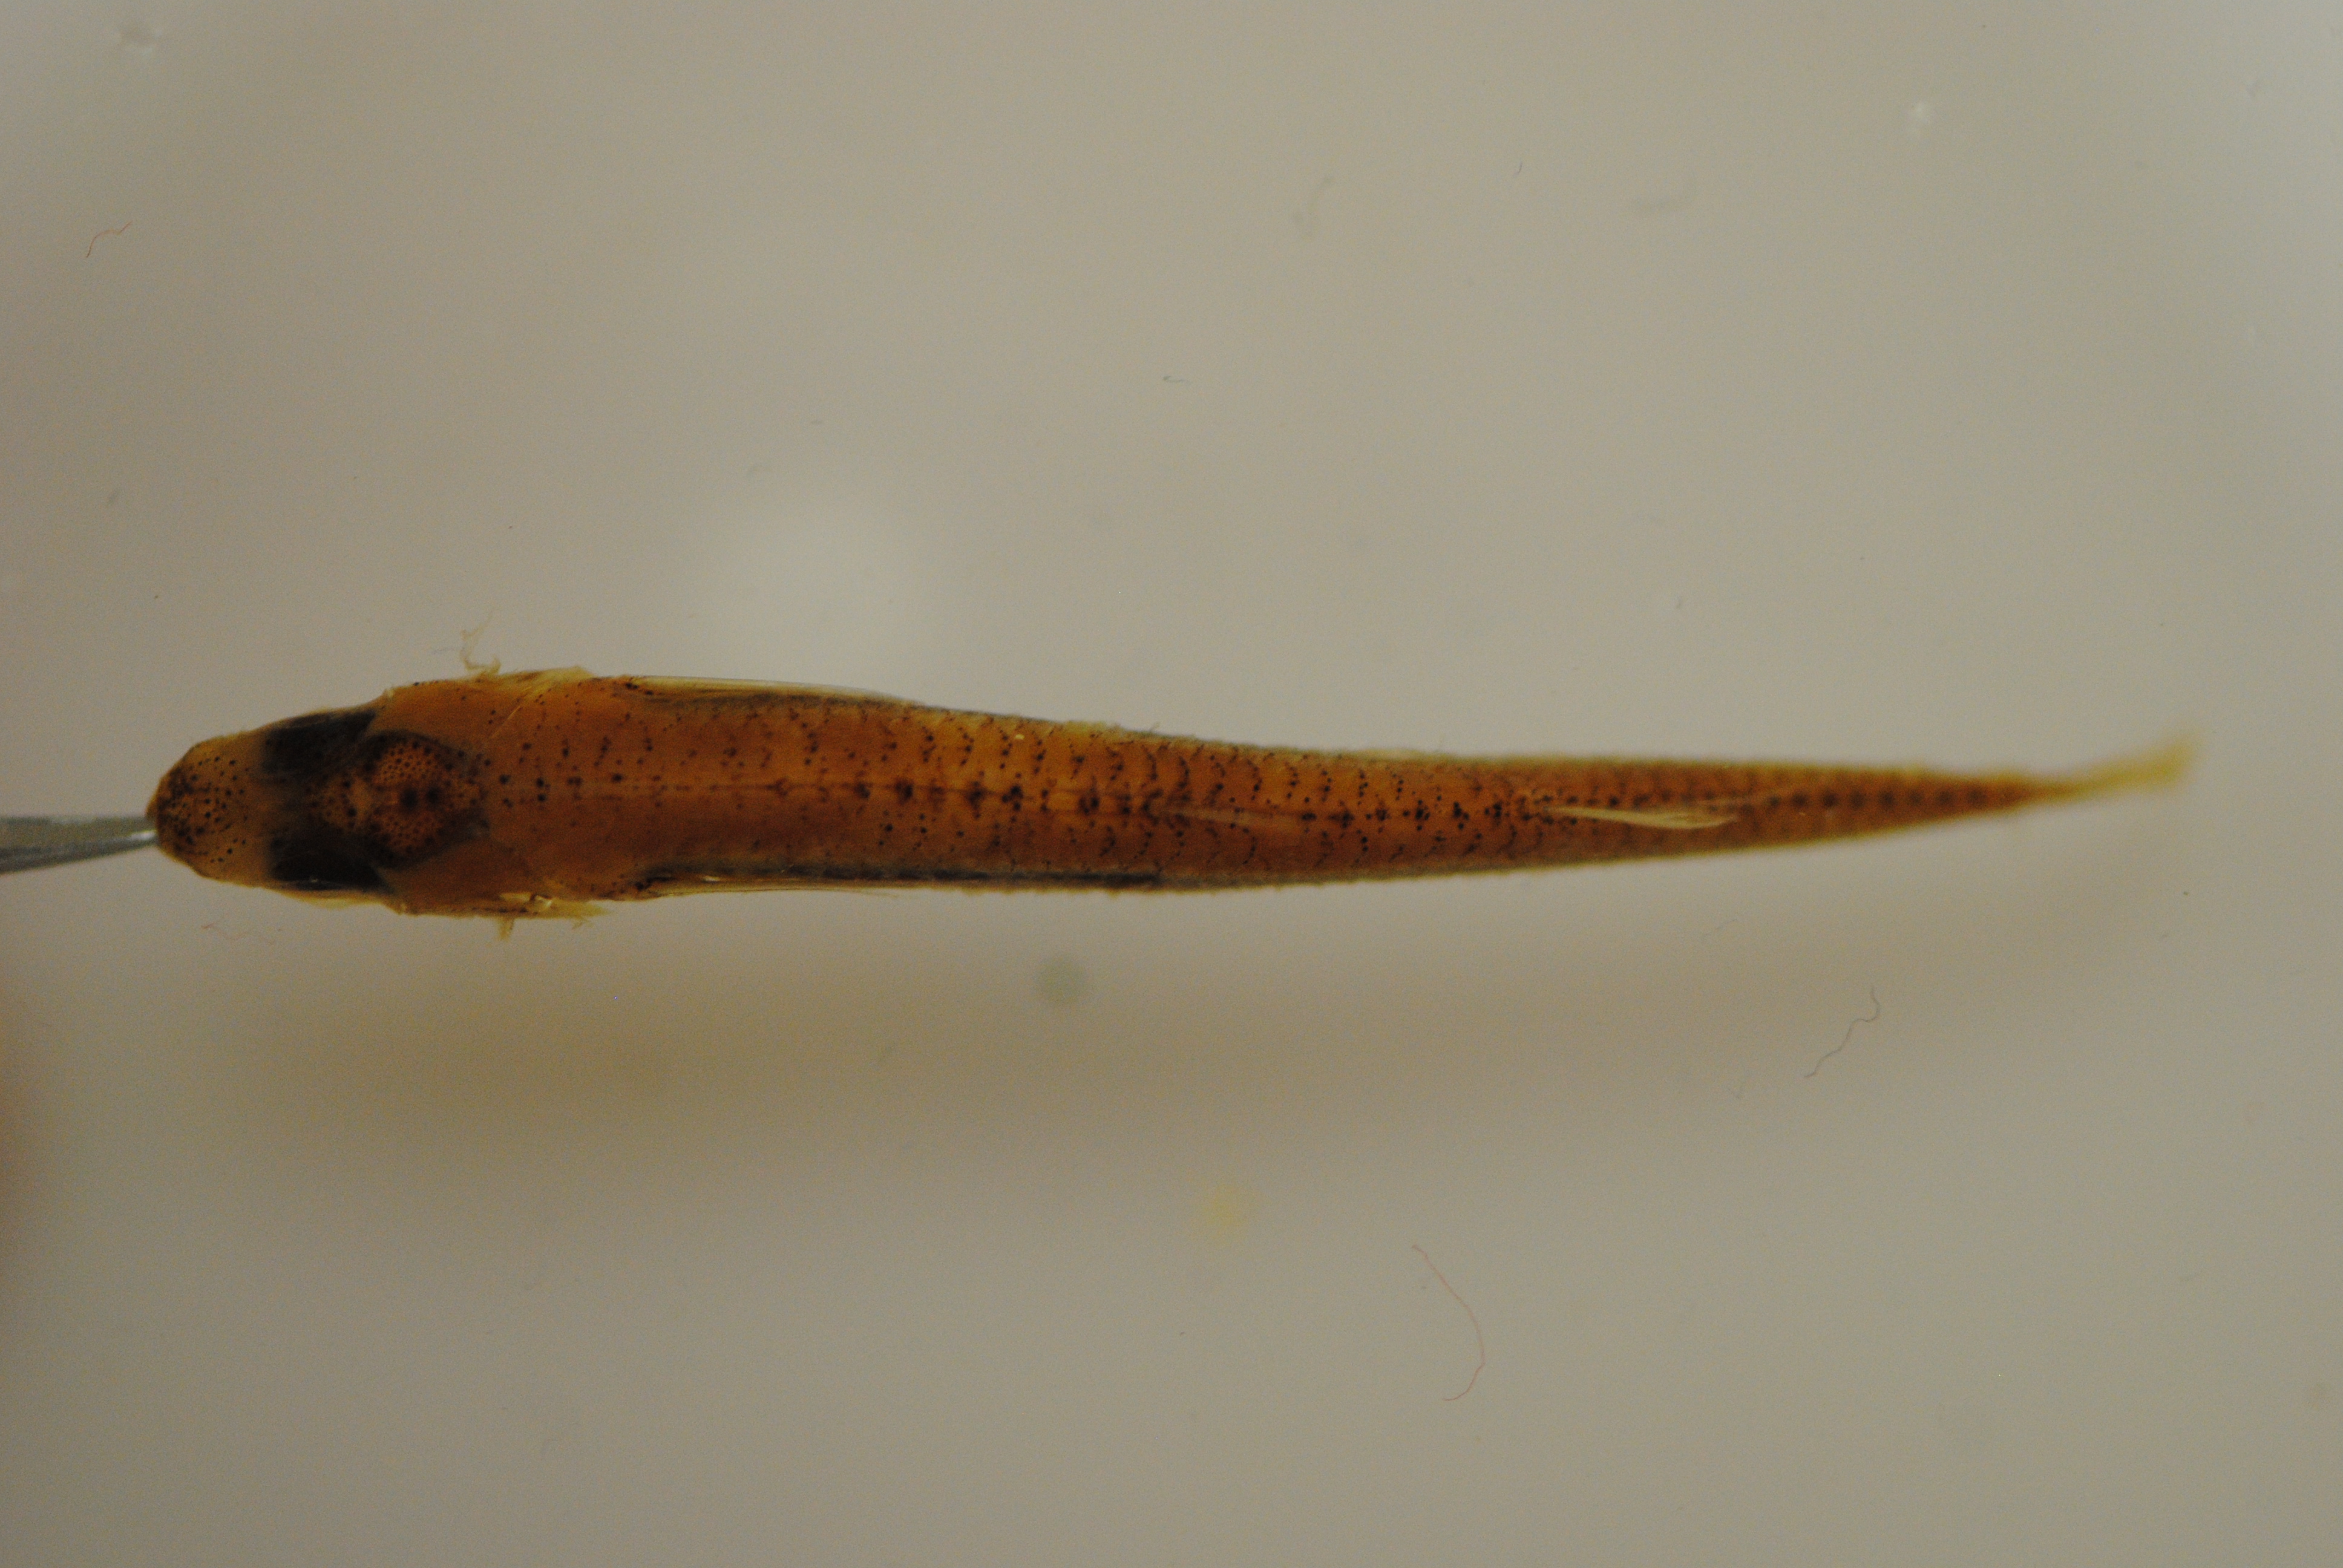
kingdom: Animalia
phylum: Chordata
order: Atheriniformes
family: Atherinidae
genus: Hypoatherina
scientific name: Hypoatherina barnesi
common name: Slender silverside
